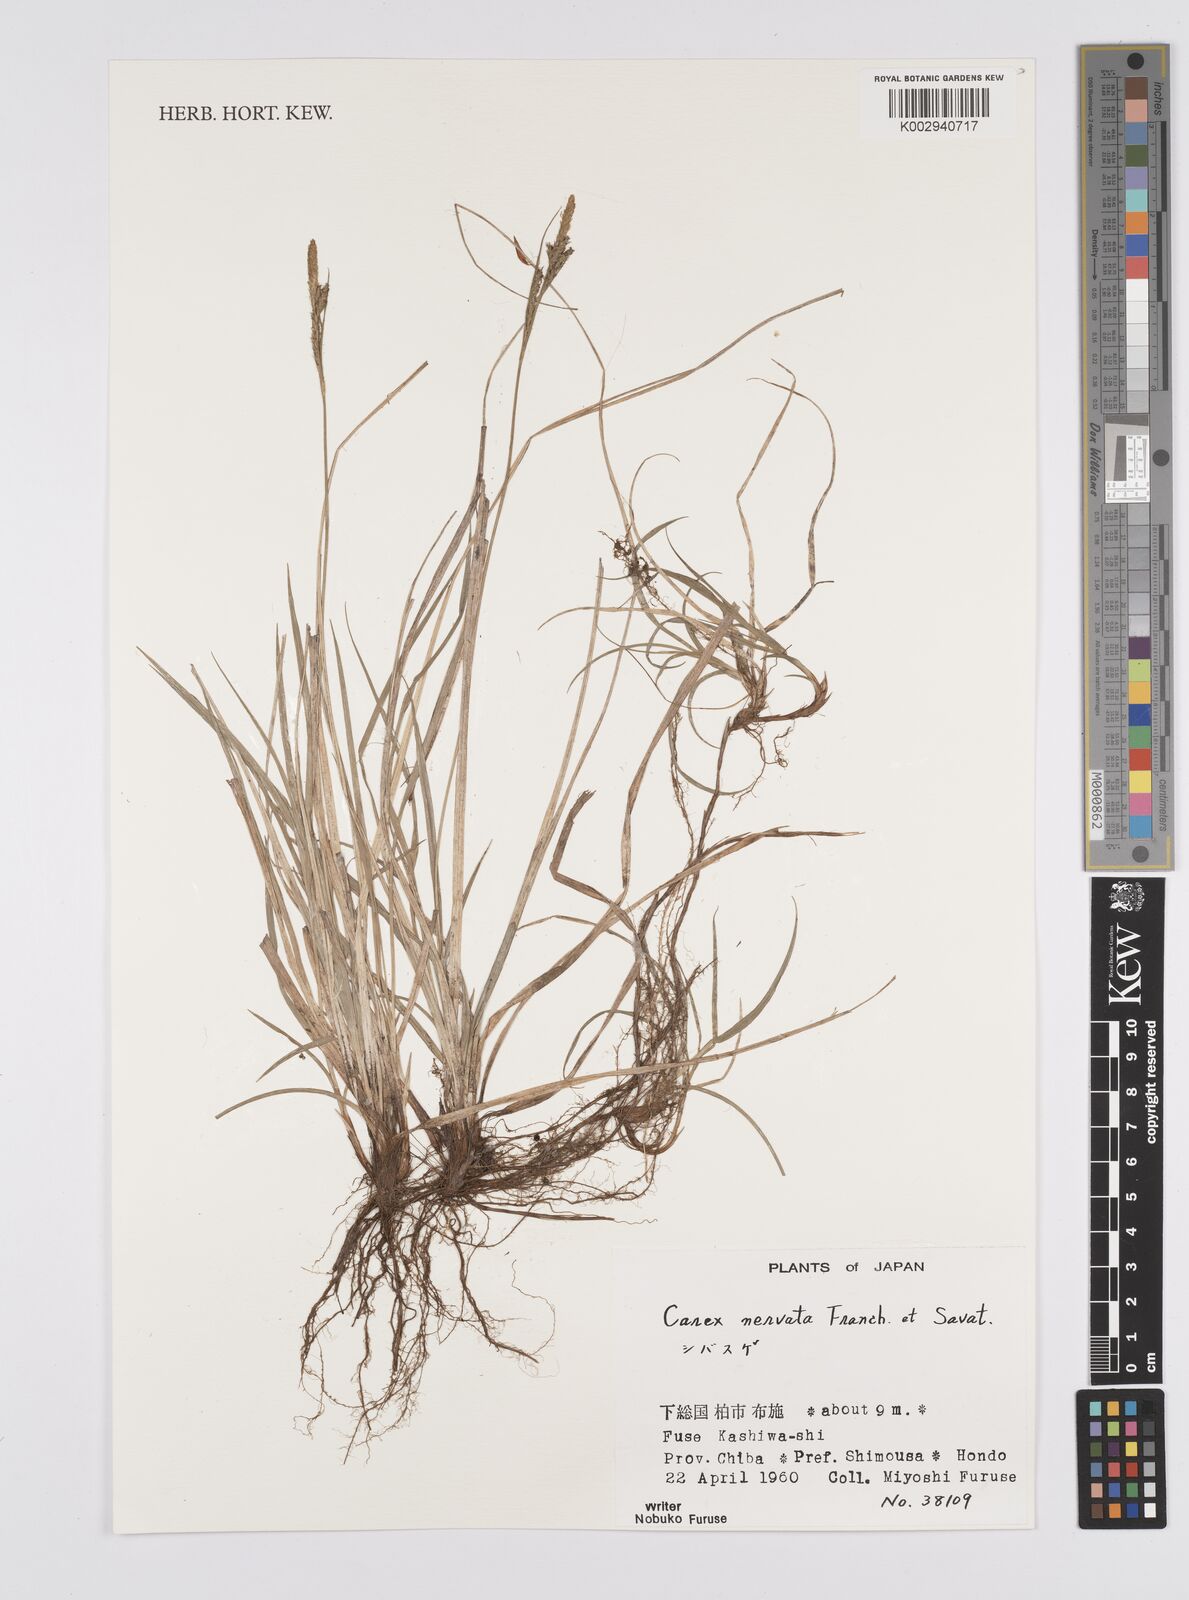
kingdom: Plantae
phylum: Tracheophyta
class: Liliopsida
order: Poales
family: Cyperaceae
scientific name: Cyperaceae
